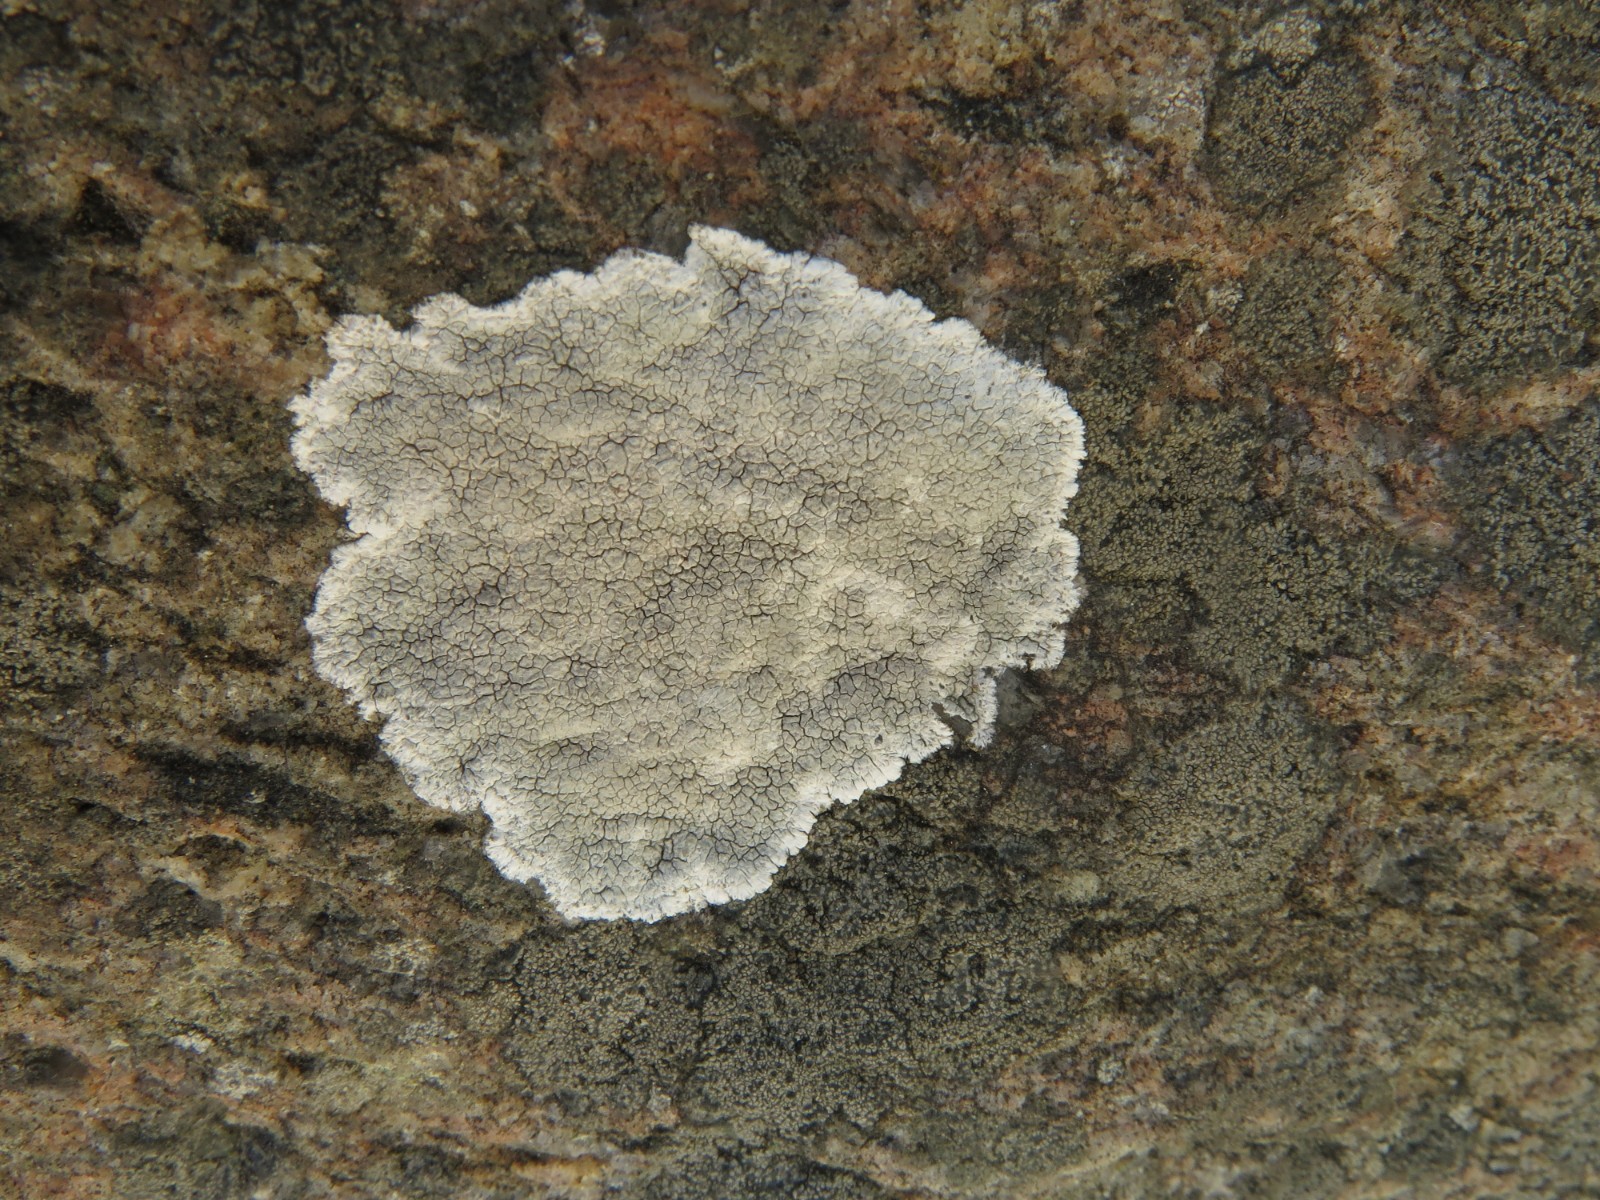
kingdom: Fungi
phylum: Ascomycota
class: Lecanoromycetes
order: Lecanorales
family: Lecanoraceae
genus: Glaucomaria
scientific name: Glaucomaria rupicola
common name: stengærde-kantskivelav
